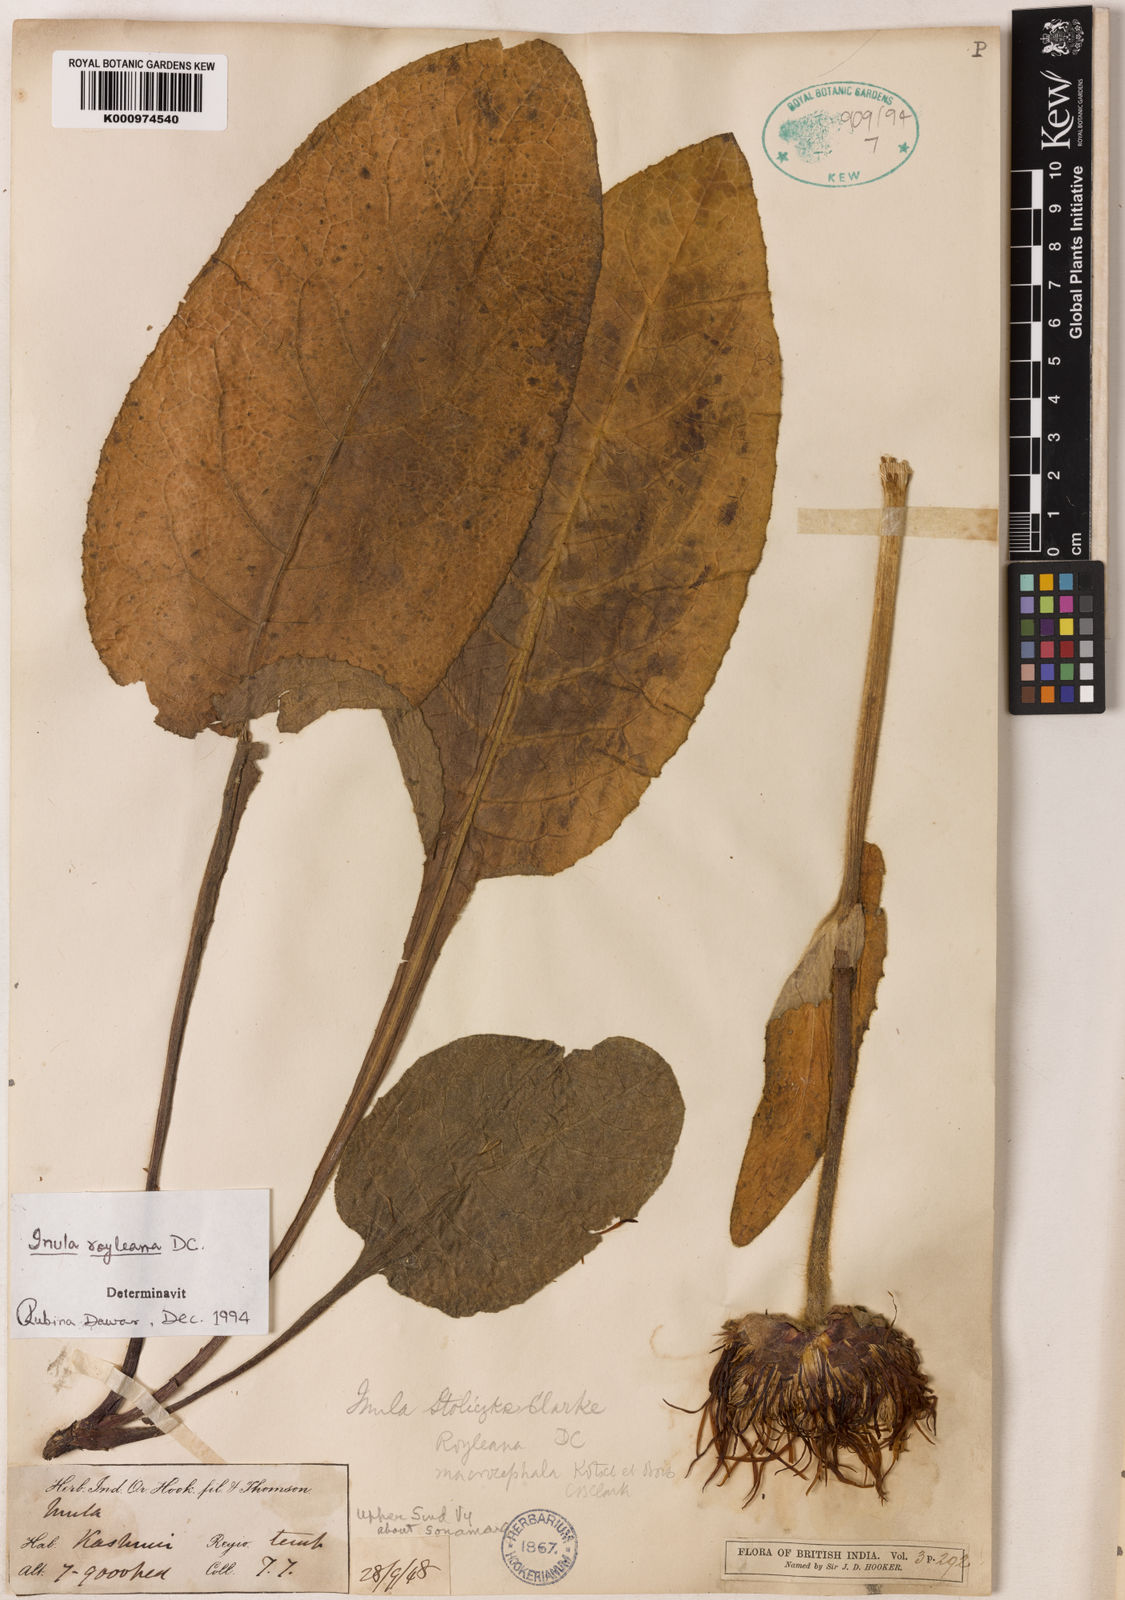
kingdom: Plantae
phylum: Tracheophyta
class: Magnoliopsida
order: Asterales
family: Asteraceae
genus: Inula
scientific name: Inula royleana
